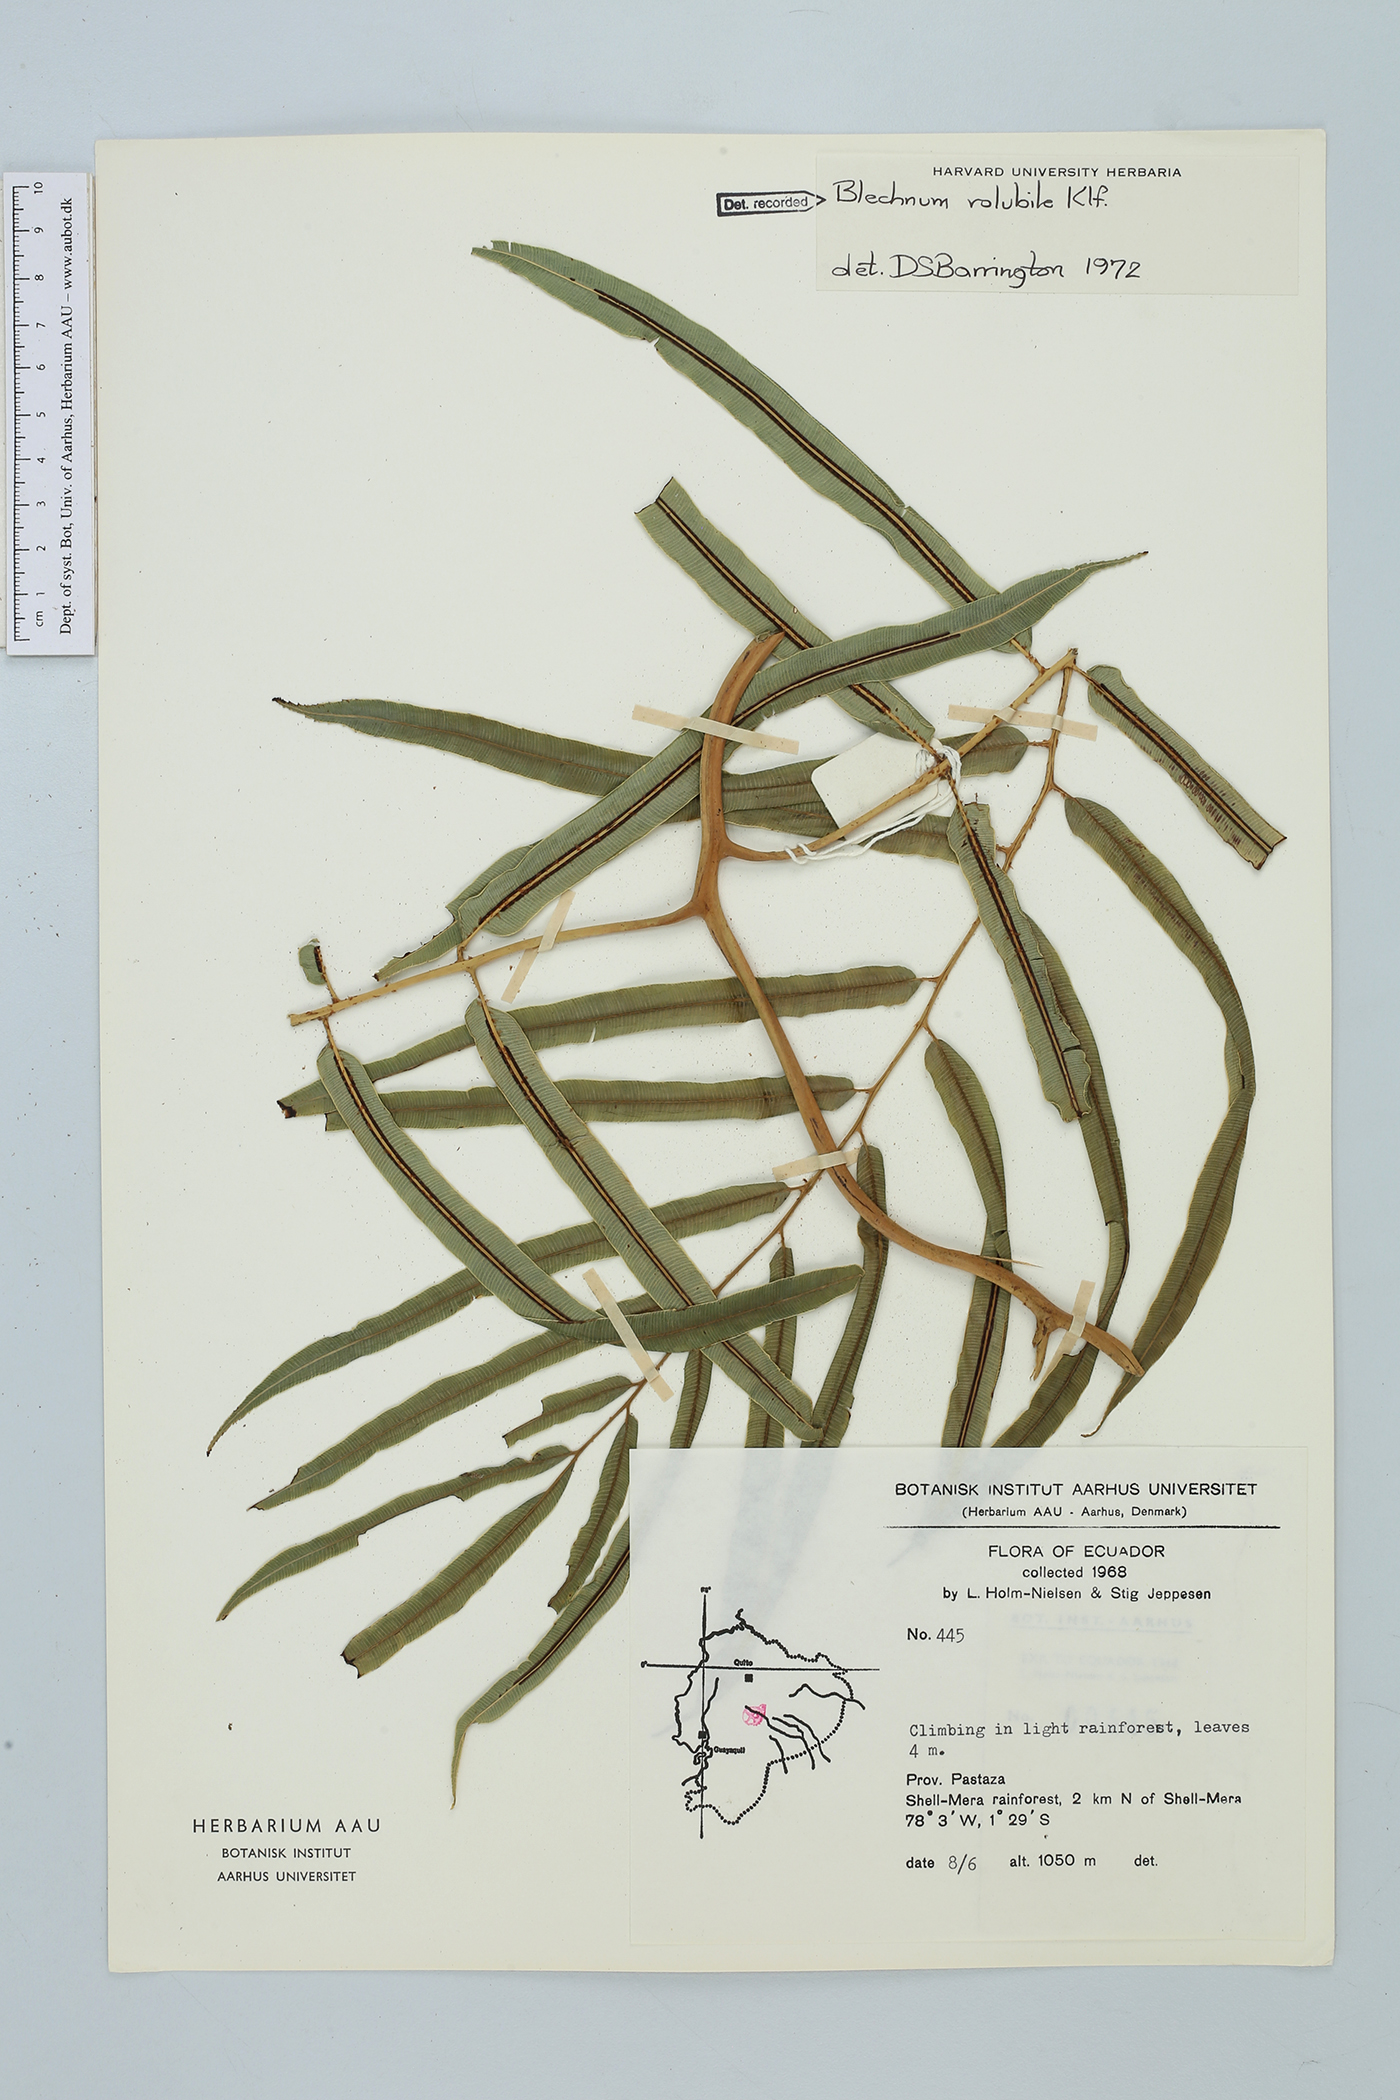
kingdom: Plantae
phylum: Tracheophyta
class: Polypodiopsida
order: Polypodiales
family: Blechnaceae
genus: Salpichlaena
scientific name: Salpichlaena volubilis
